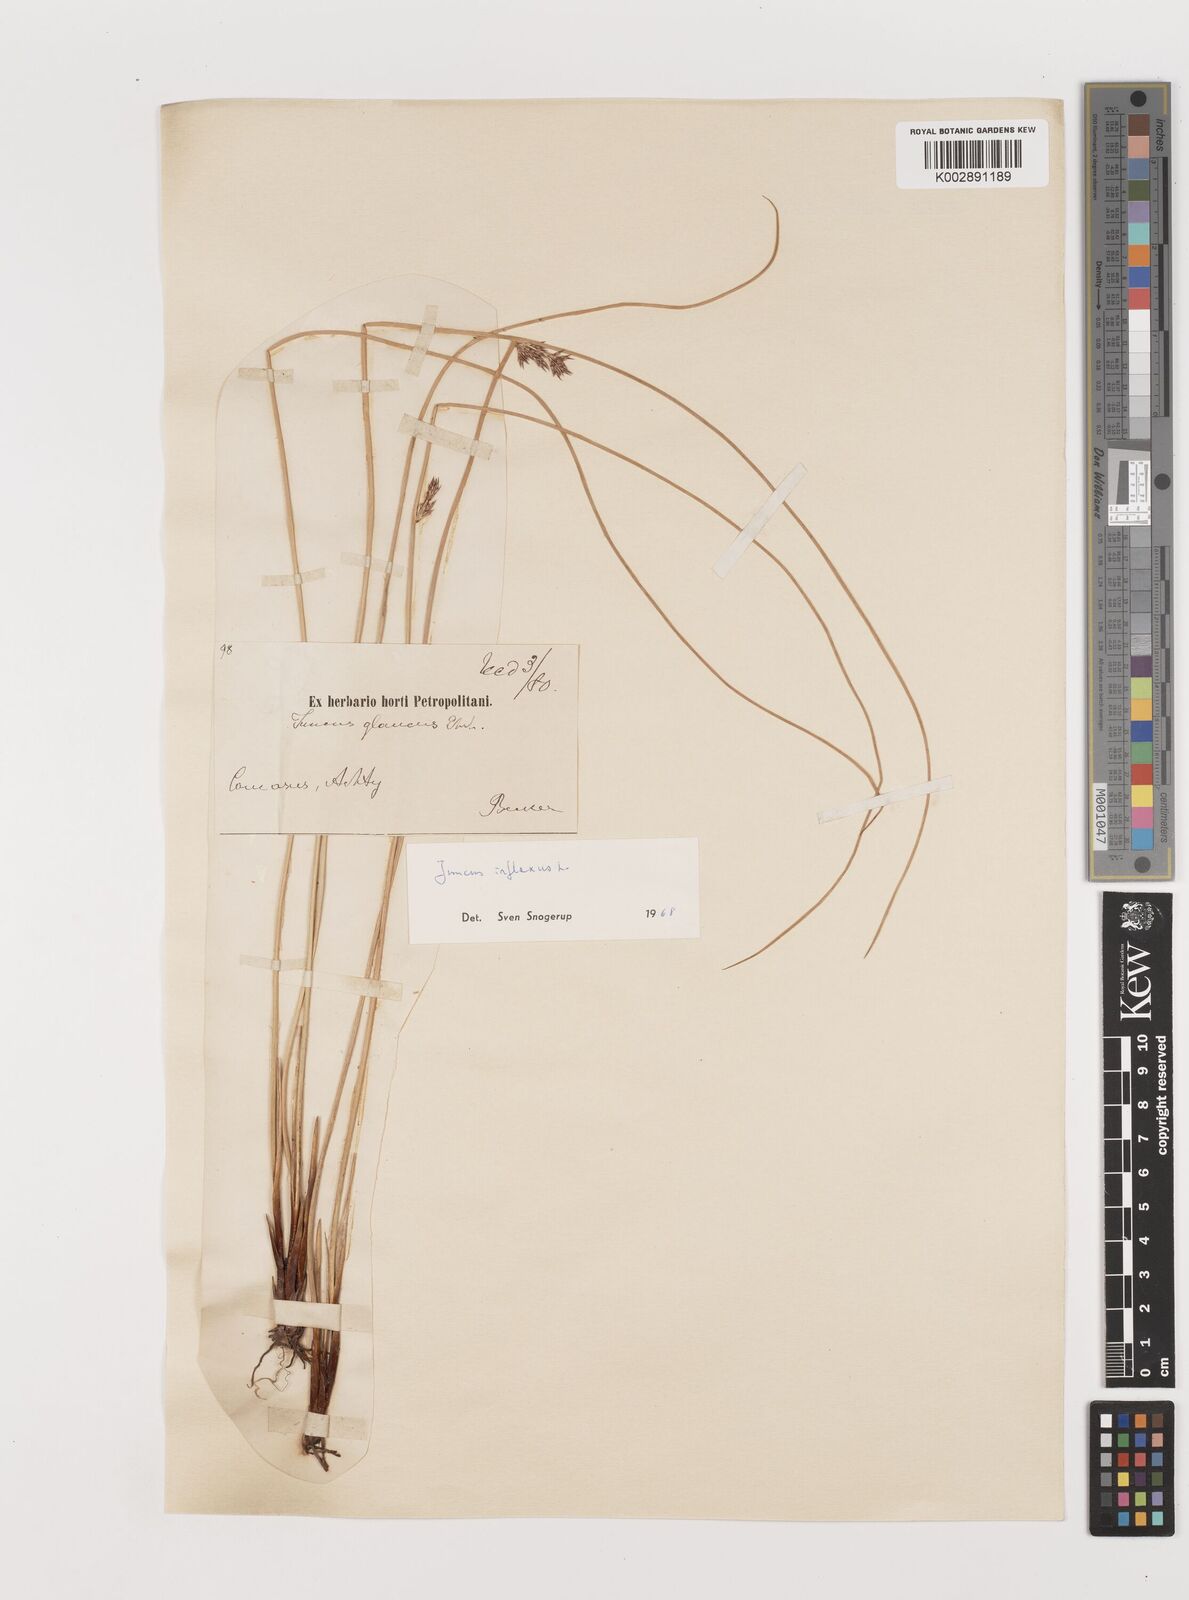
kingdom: Plantae
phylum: Tracheophyta
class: Liliopsida
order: Poales
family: Juncaceae
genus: Juncus
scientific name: Juncus inflexus
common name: Hard rush
